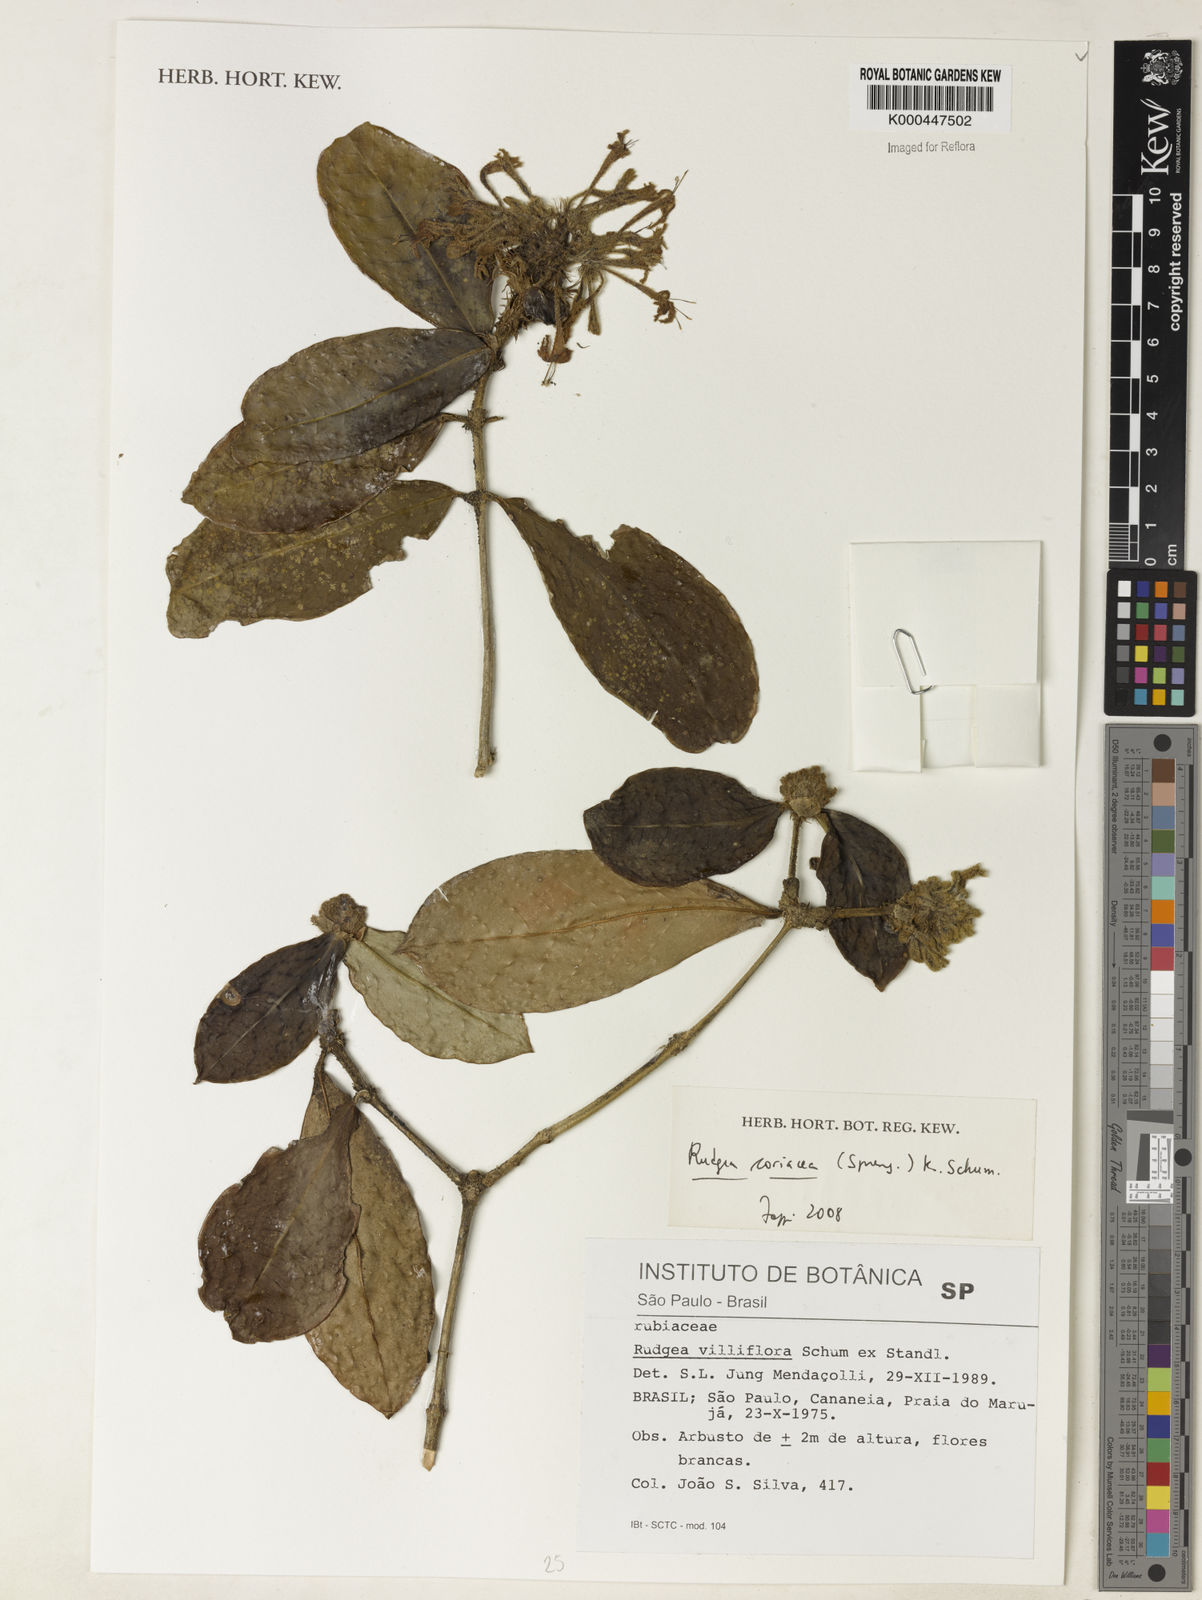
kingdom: Plantae
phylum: Tracheophyta
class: Magnoliopsida
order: Gentianales
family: Rubiaceae
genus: Rudgea
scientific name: Rudgea coriacea
